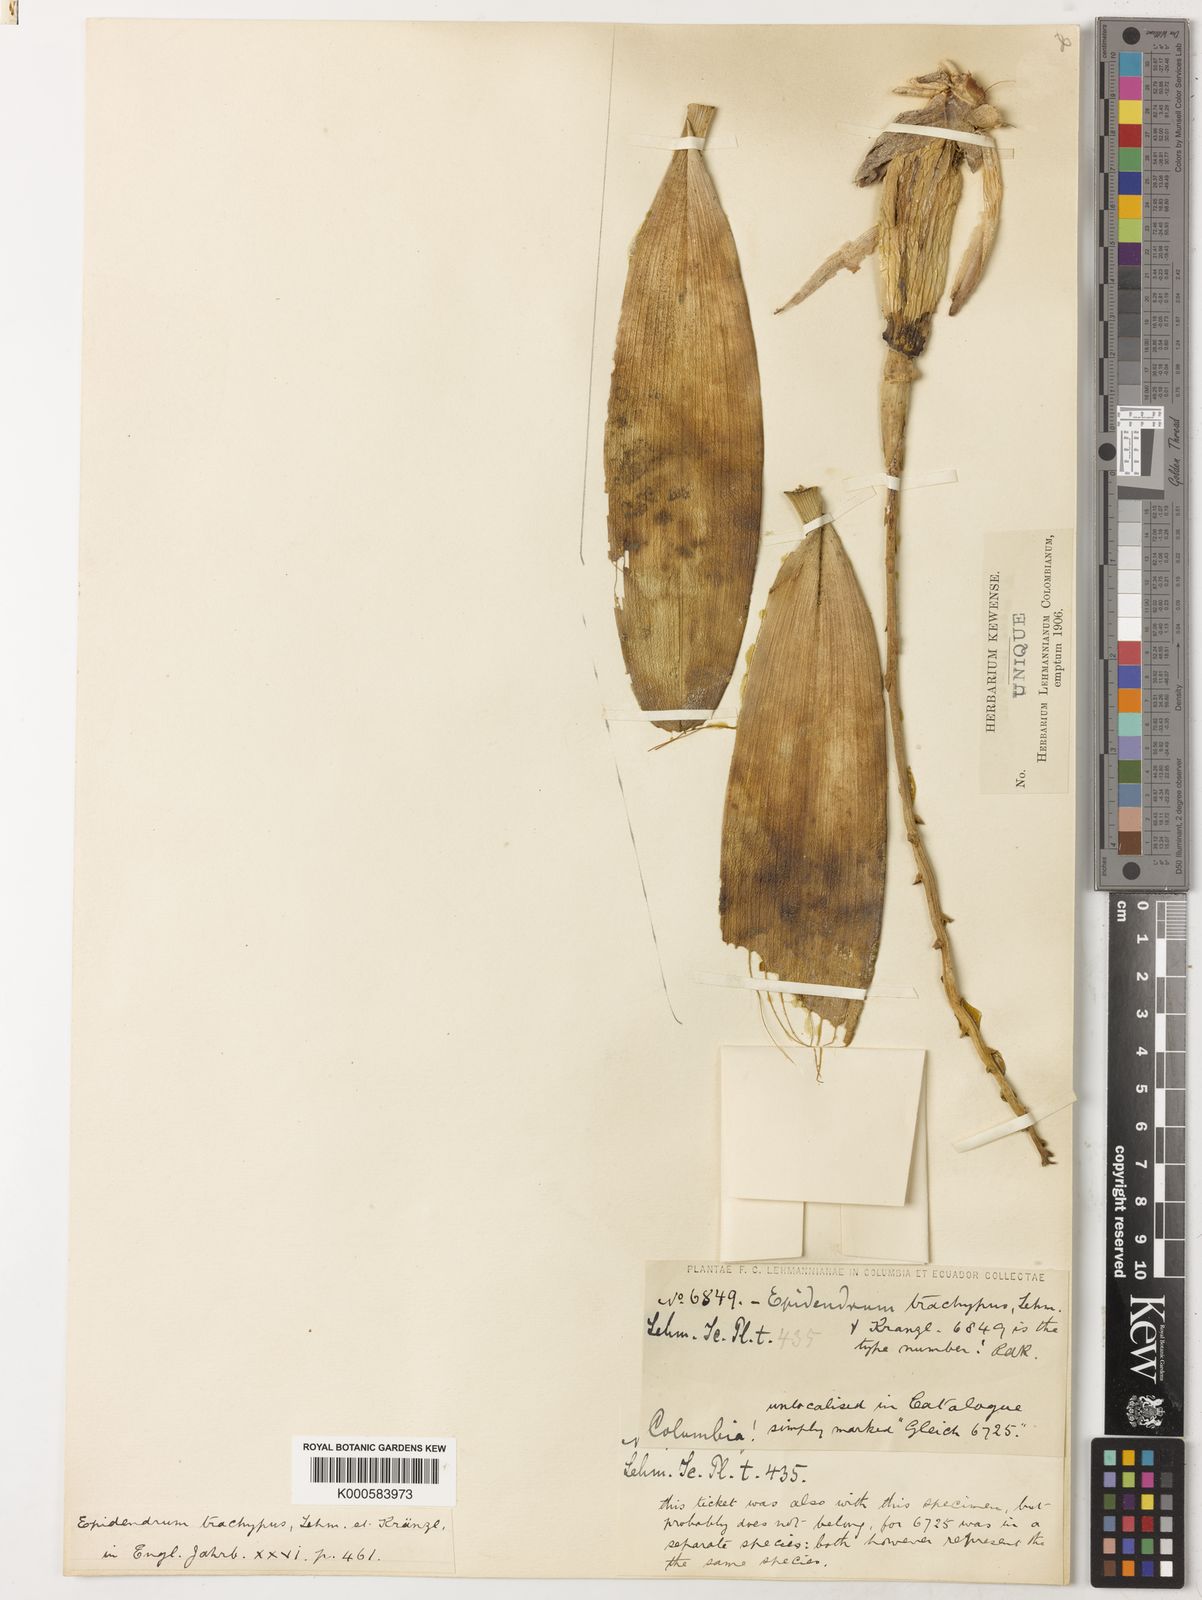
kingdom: Plantae
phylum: Tracheophyta
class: Liliopsida
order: Asparagales
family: Orchidaceae
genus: Encyclia
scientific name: Encyclia aspera
